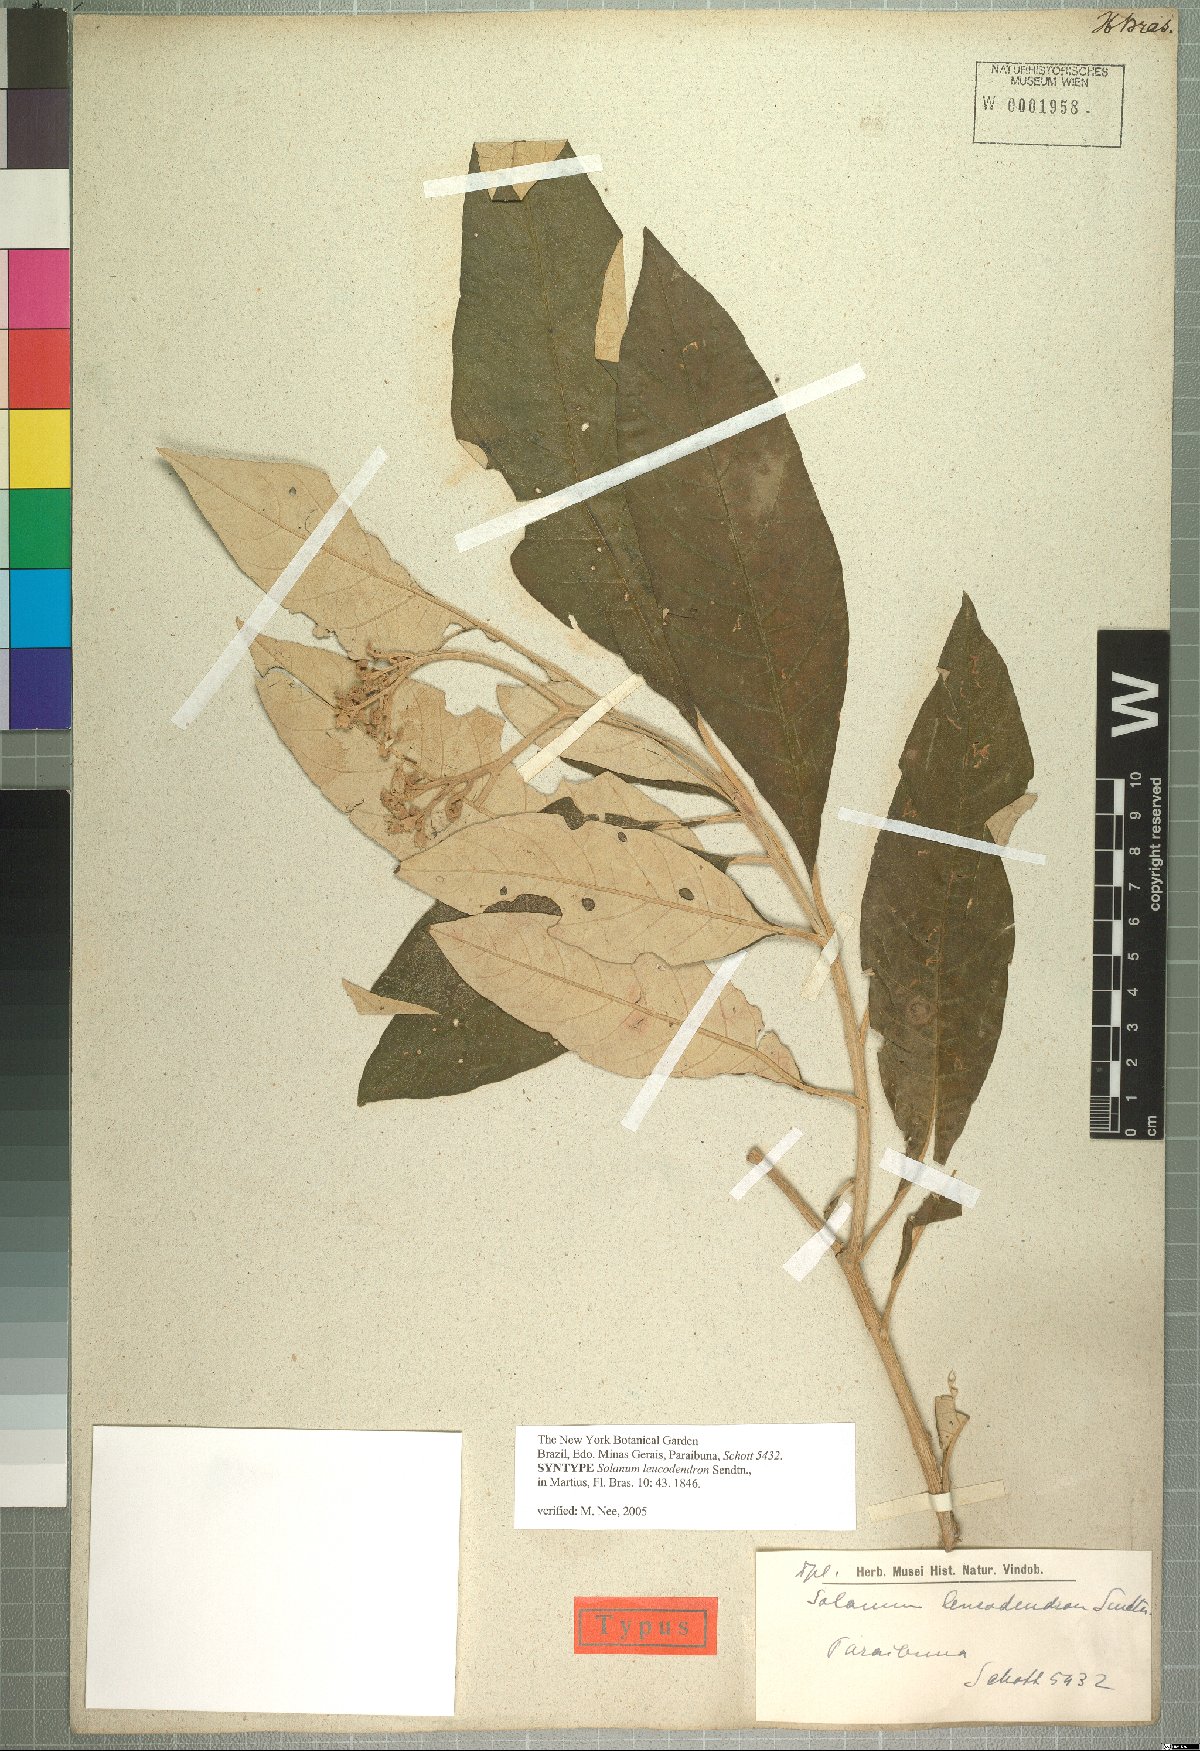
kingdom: Plantae
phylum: Tracheophyta
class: Magnoliopsida
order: Solanales
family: Solanaceae
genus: Solanum
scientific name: Solanum leucodendron
